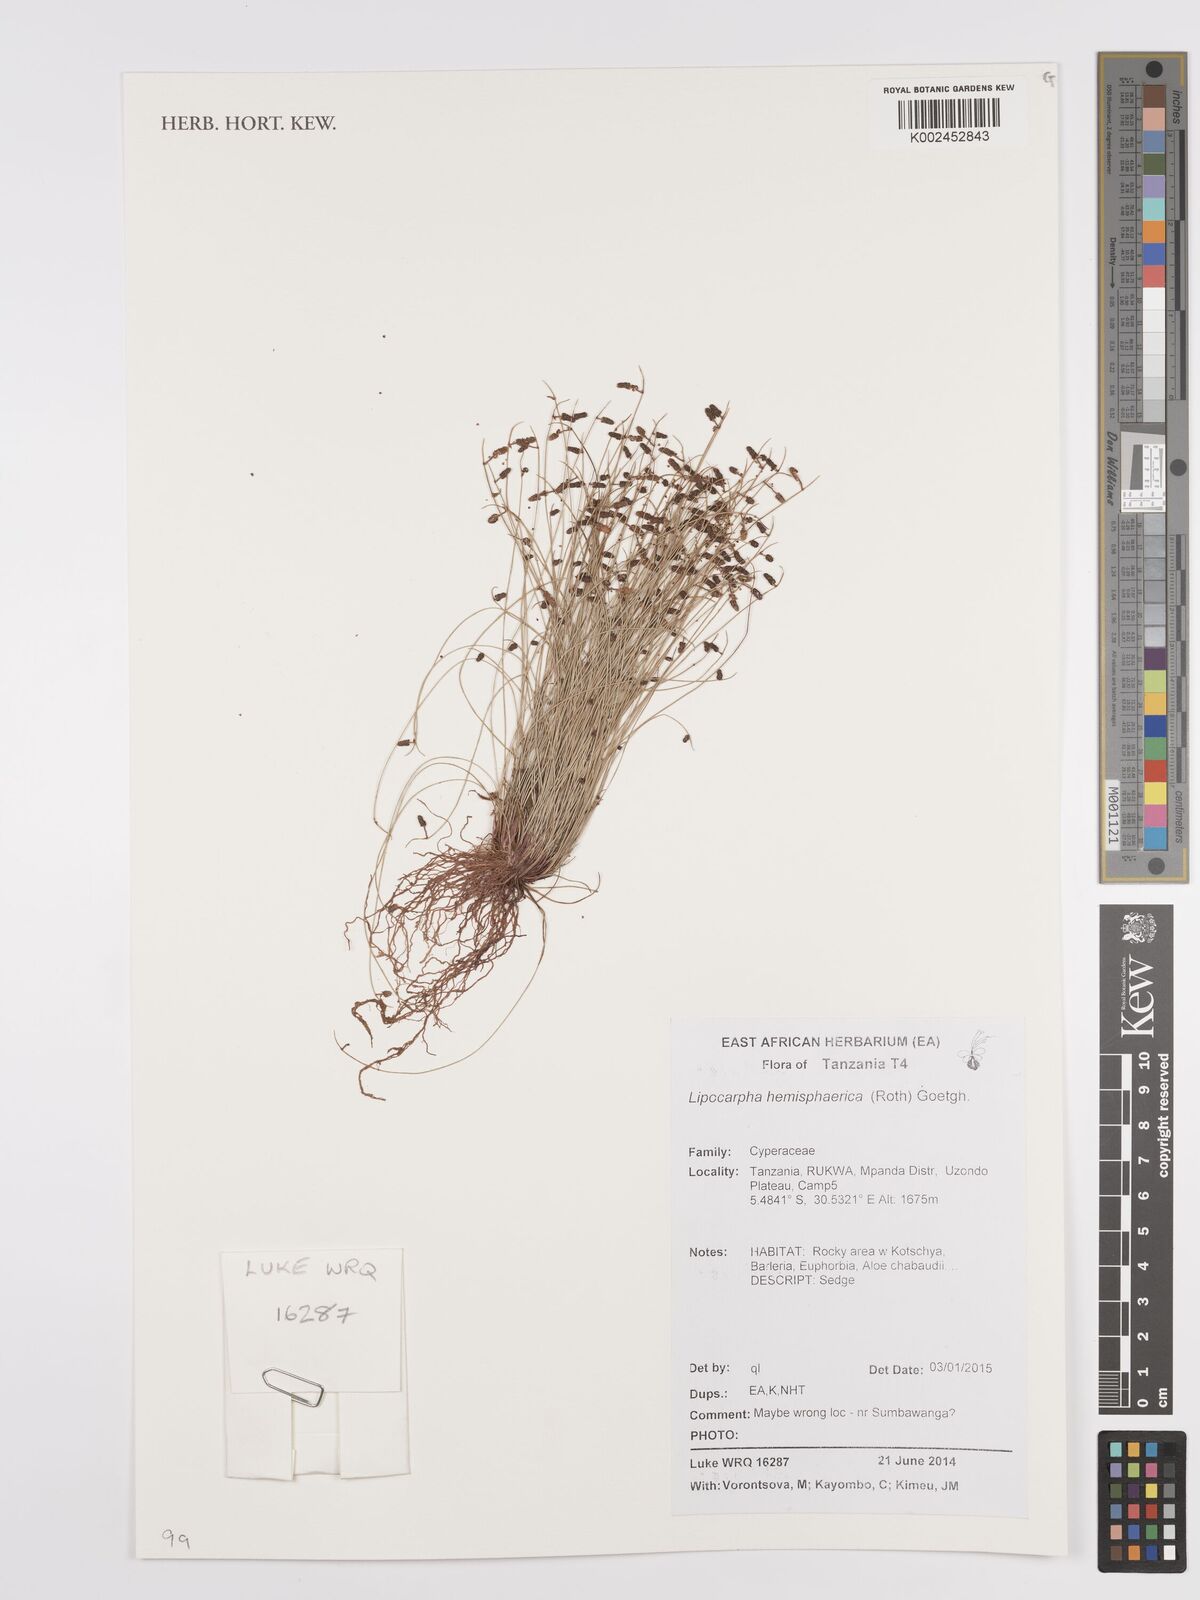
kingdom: Plantae
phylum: Tracheophyta
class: Liliopsida
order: Poales
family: Cyperaceae
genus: Cyperus
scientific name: Cyperus hemisphaericus
